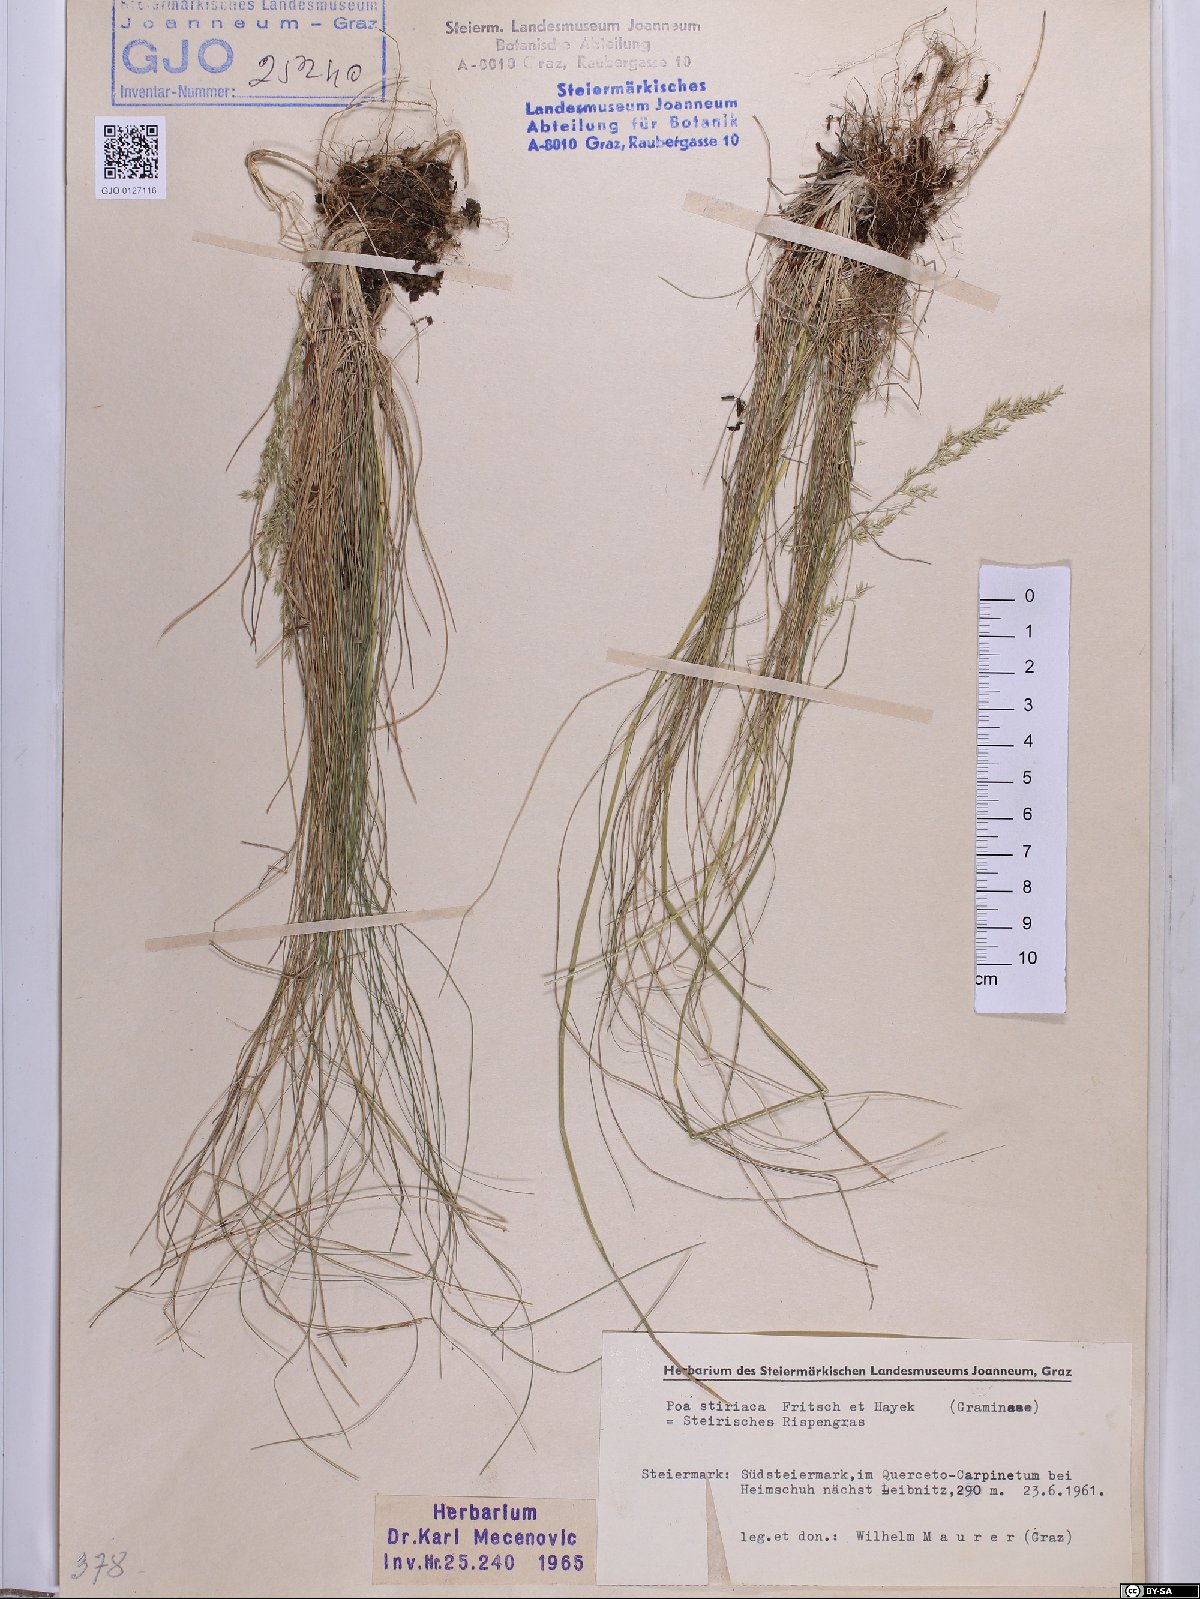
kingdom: Plantae
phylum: Tracheophyta
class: Liliopsida
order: Poales
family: Poaceae
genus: Poa
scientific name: Poa stiriaca
